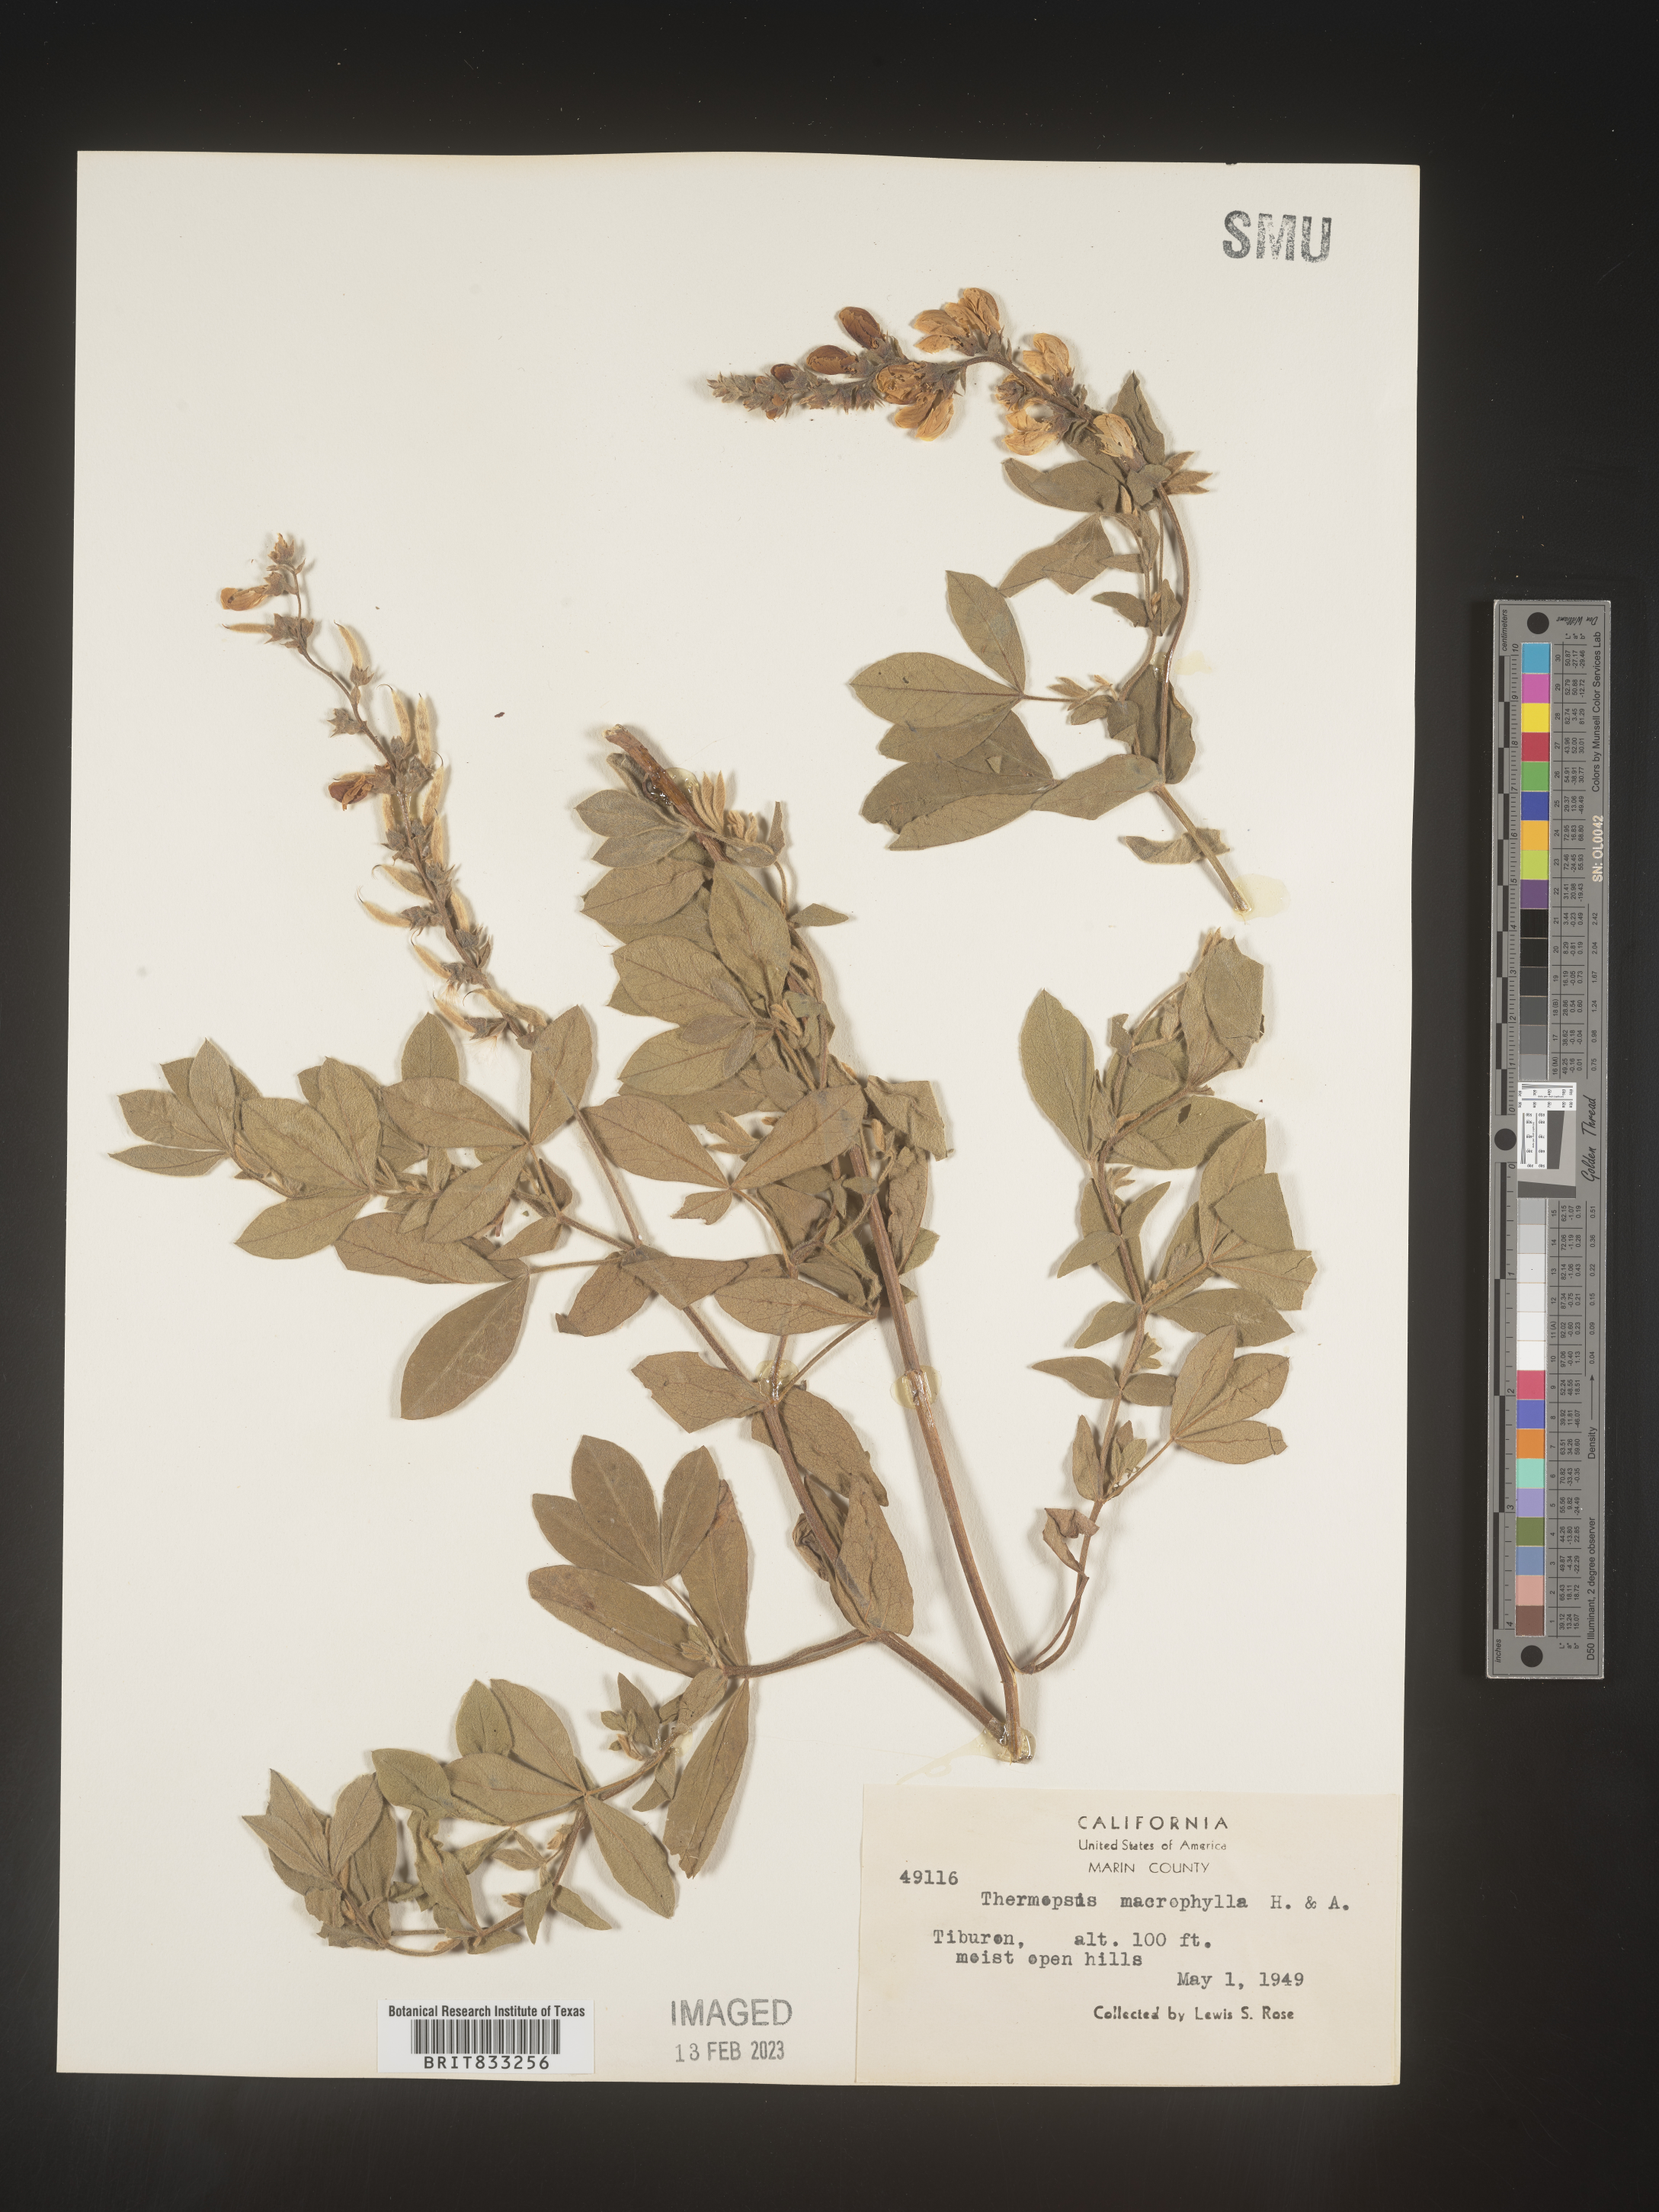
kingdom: Plantae
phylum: Tracheophyta
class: Magnoliopsida
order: Fabales
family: Fabaceae
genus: Thermopsis
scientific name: Thermopsis macrophylla
